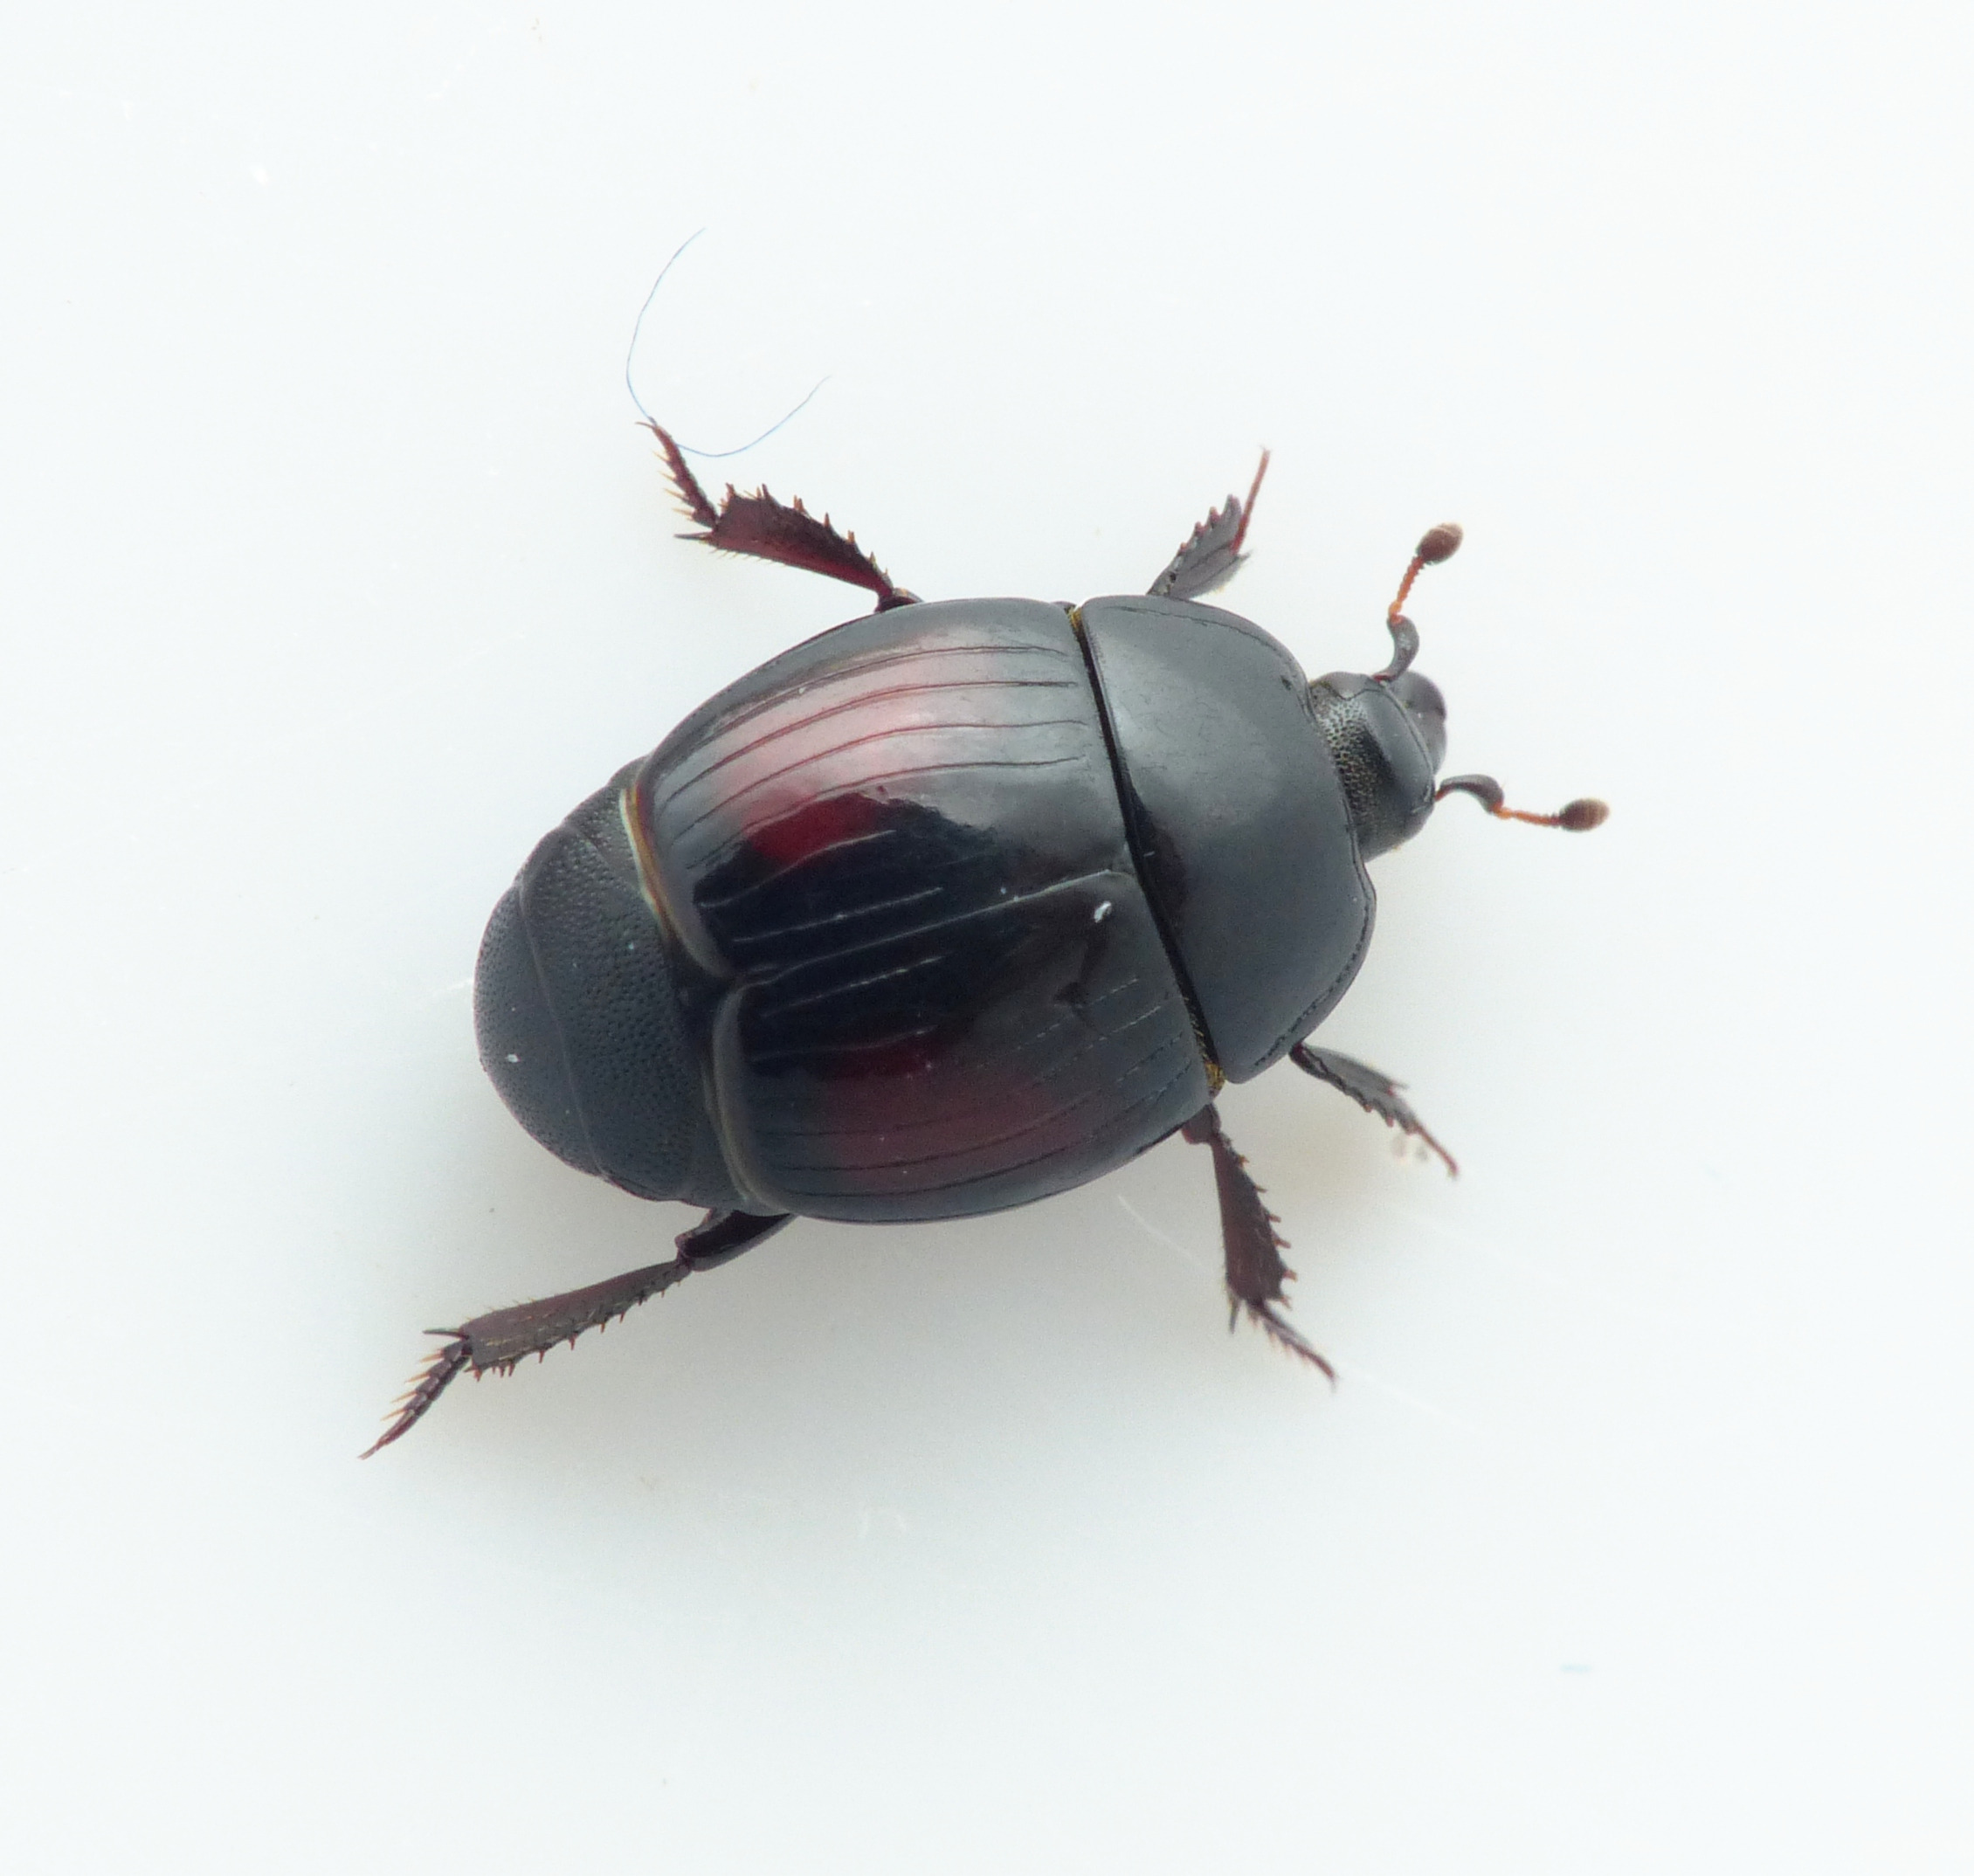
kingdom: Animalia
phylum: Arthropoda
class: Insecta
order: Coleoptera
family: Histeridae
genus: Margarinotus
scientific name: Margarinotus purpurascens
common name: Purpurstumpbille
